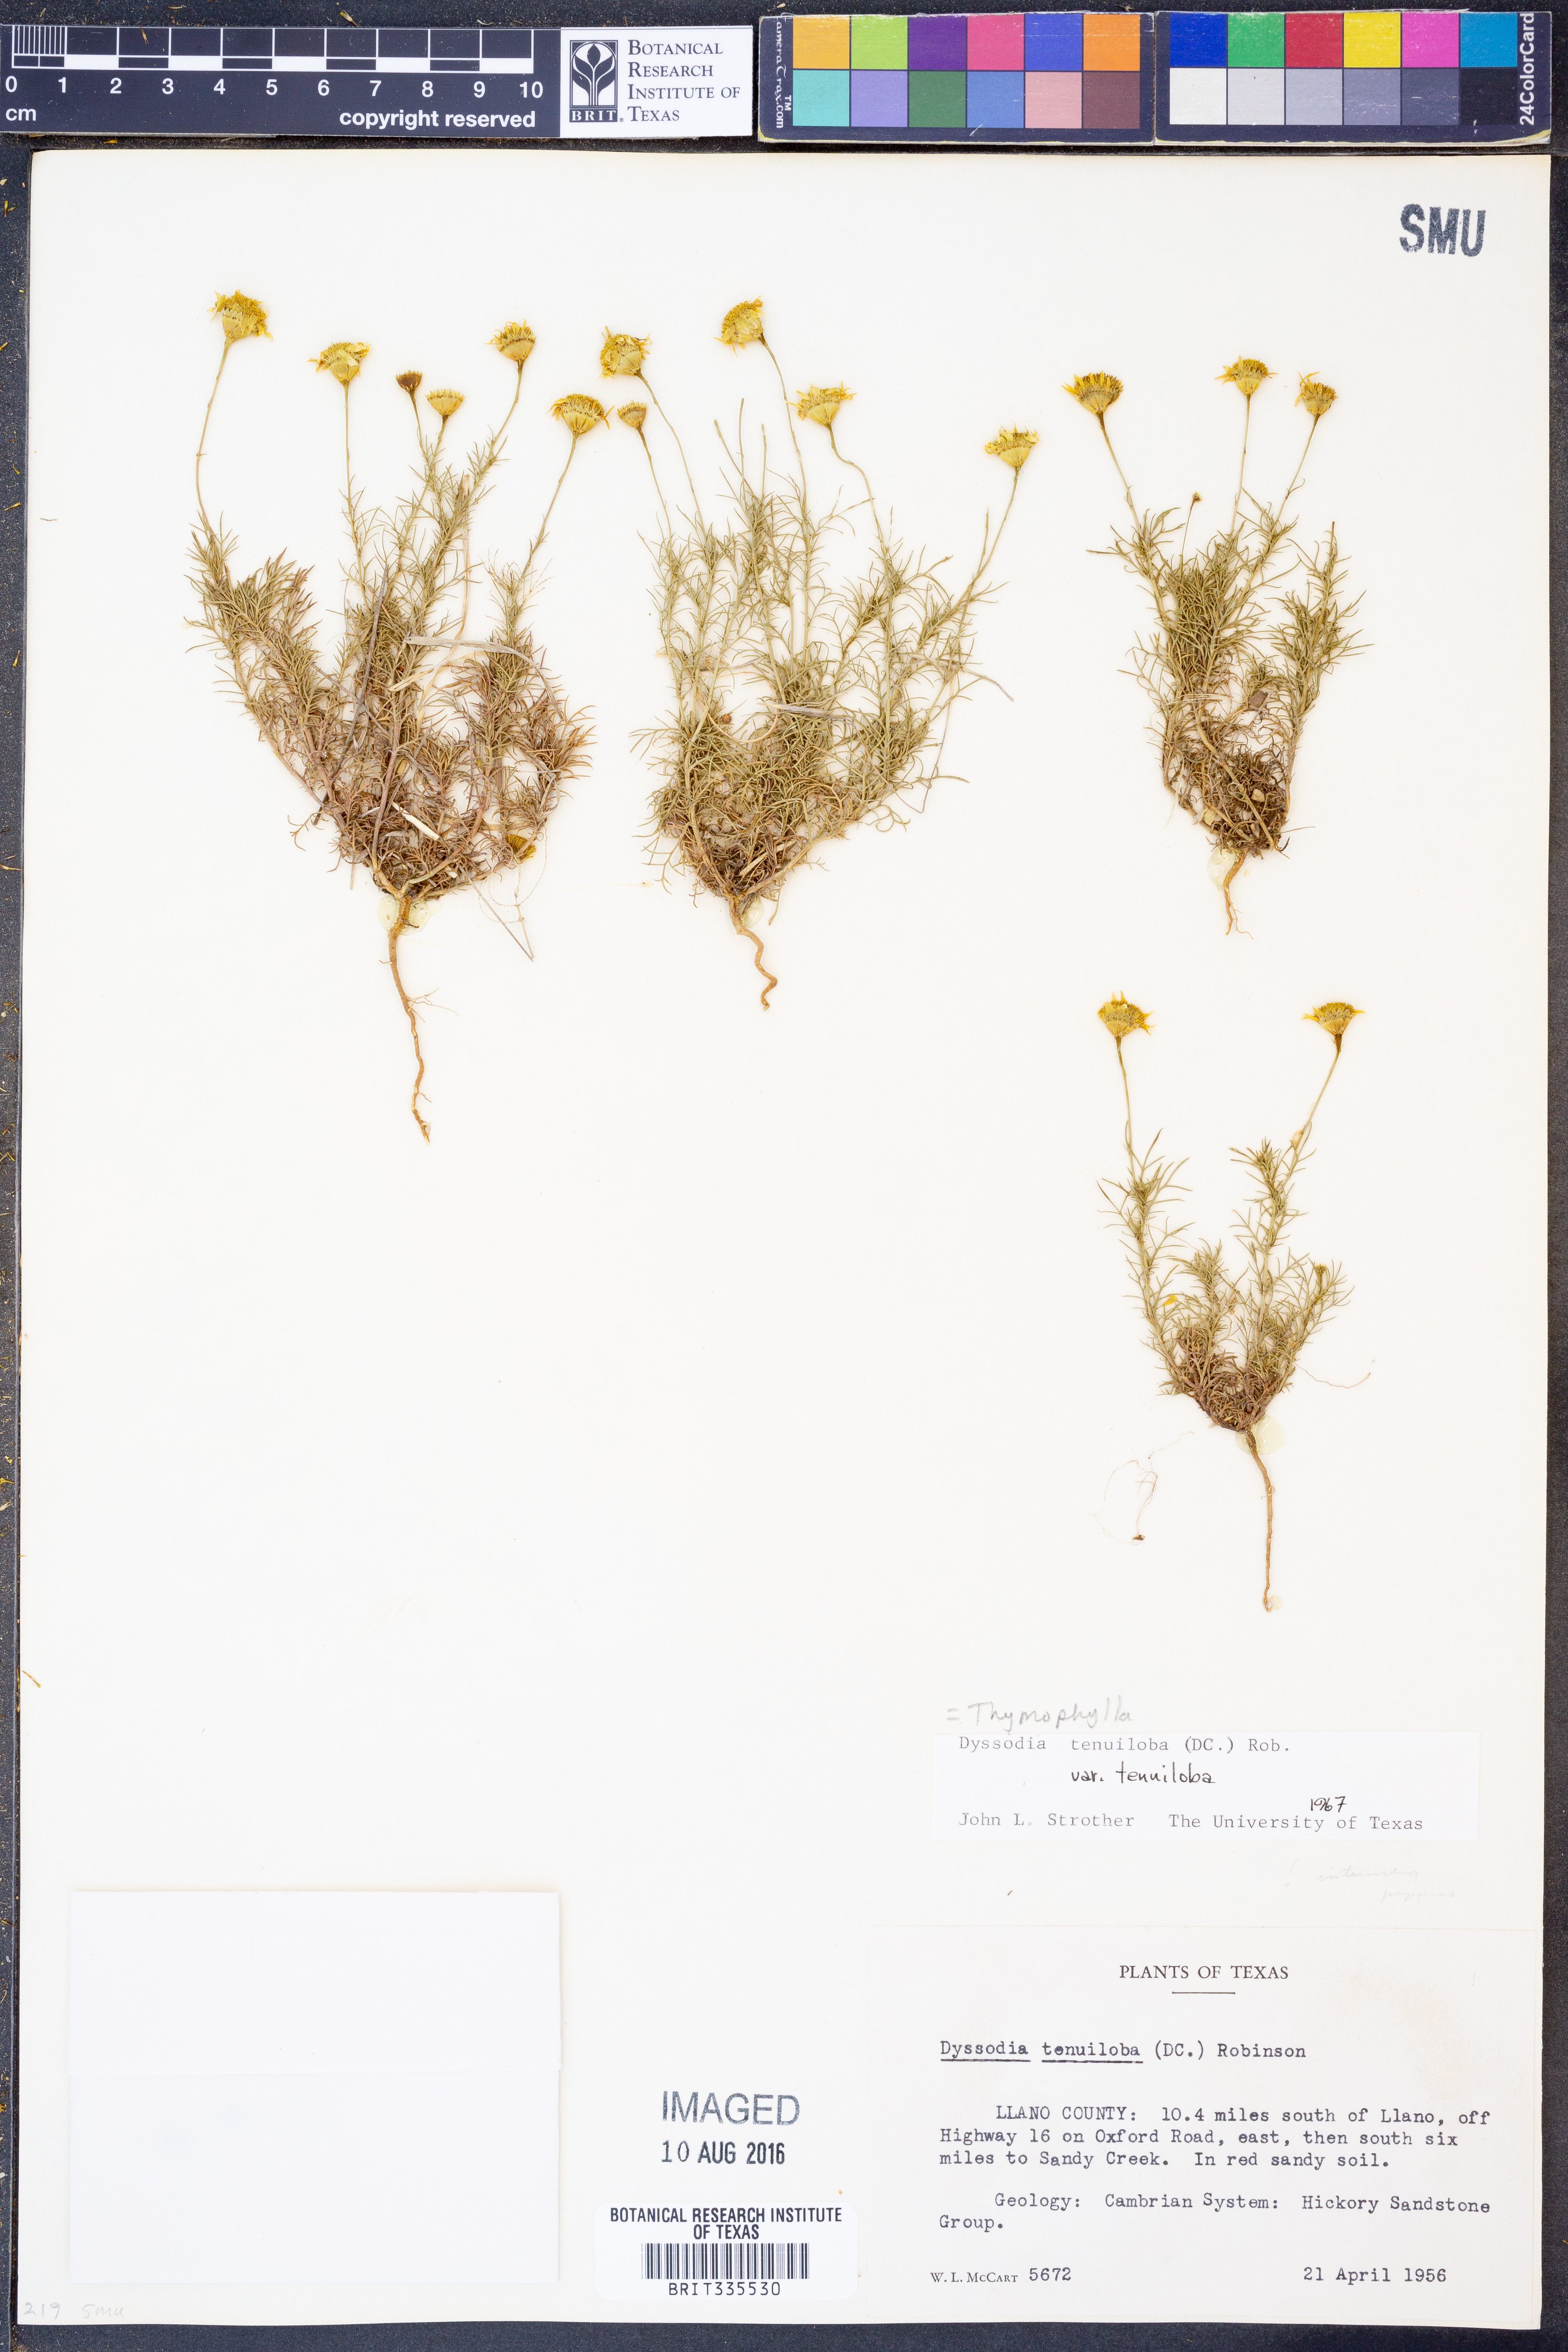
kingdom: Plantae
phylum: Tracheophyta
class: Magnoliopsida
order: Asterales
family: Asteraceae
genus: Thymophylla
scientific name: Thymophylla tenuiloba
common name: Dahlberg's daisy
